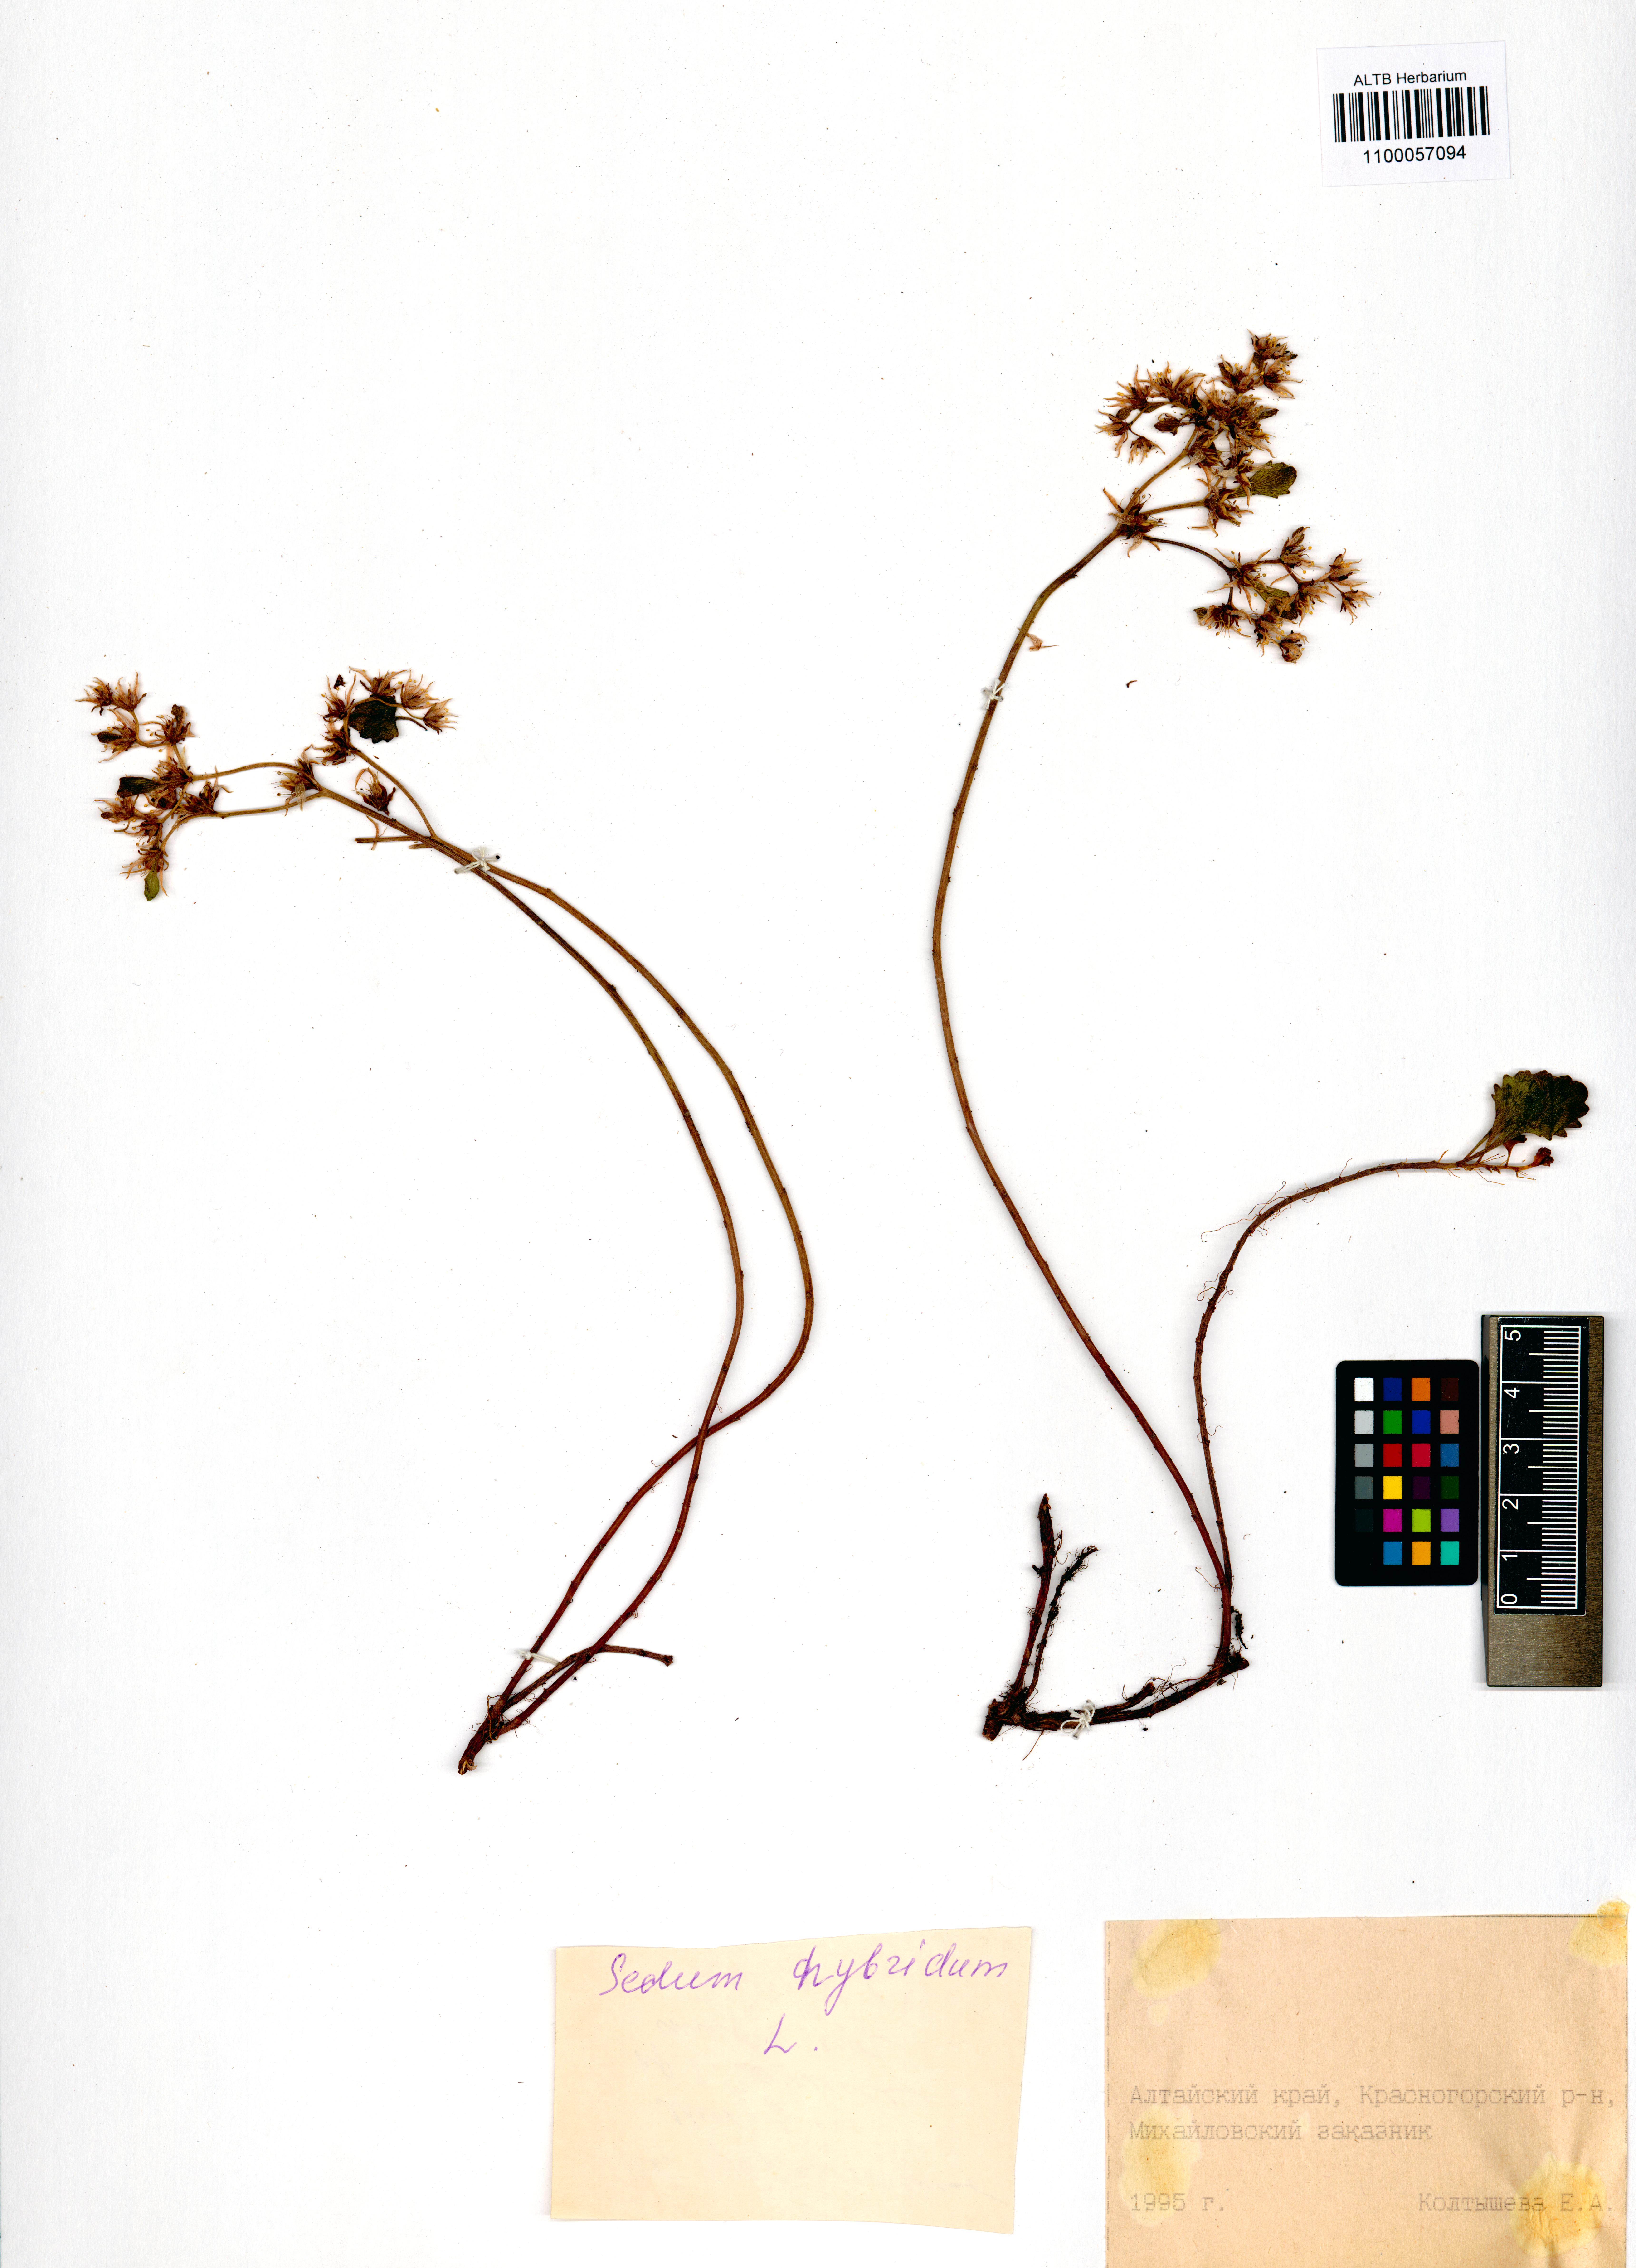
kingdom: Plantae
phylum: Tracheophyta
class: Magnoliopsida
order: Saxifragales
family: Crassulaceae
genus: Phedimus
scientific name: Phedimus hybridus
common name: Hybrid stonecrop
